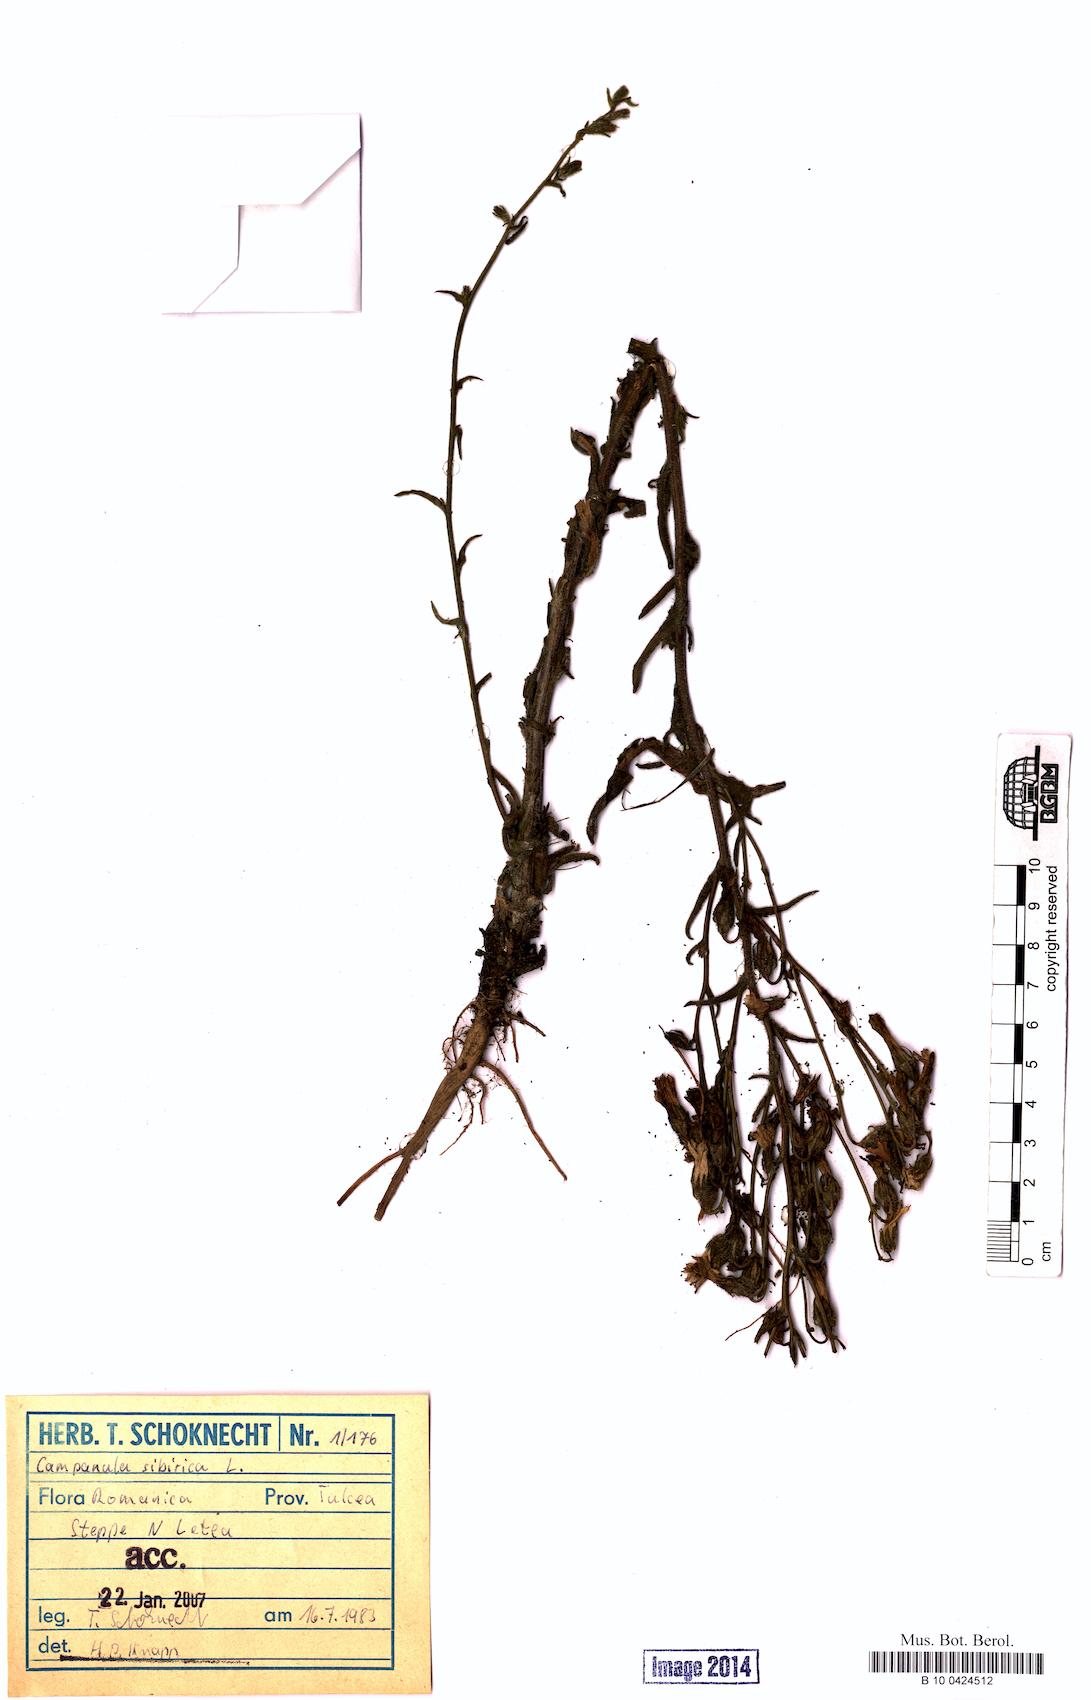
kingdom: Plantae
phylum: Tracheophyta
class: Magnoliopsida
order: Asterales
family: Campanulaceae
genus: Campanula
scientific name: Campanula sibirica
